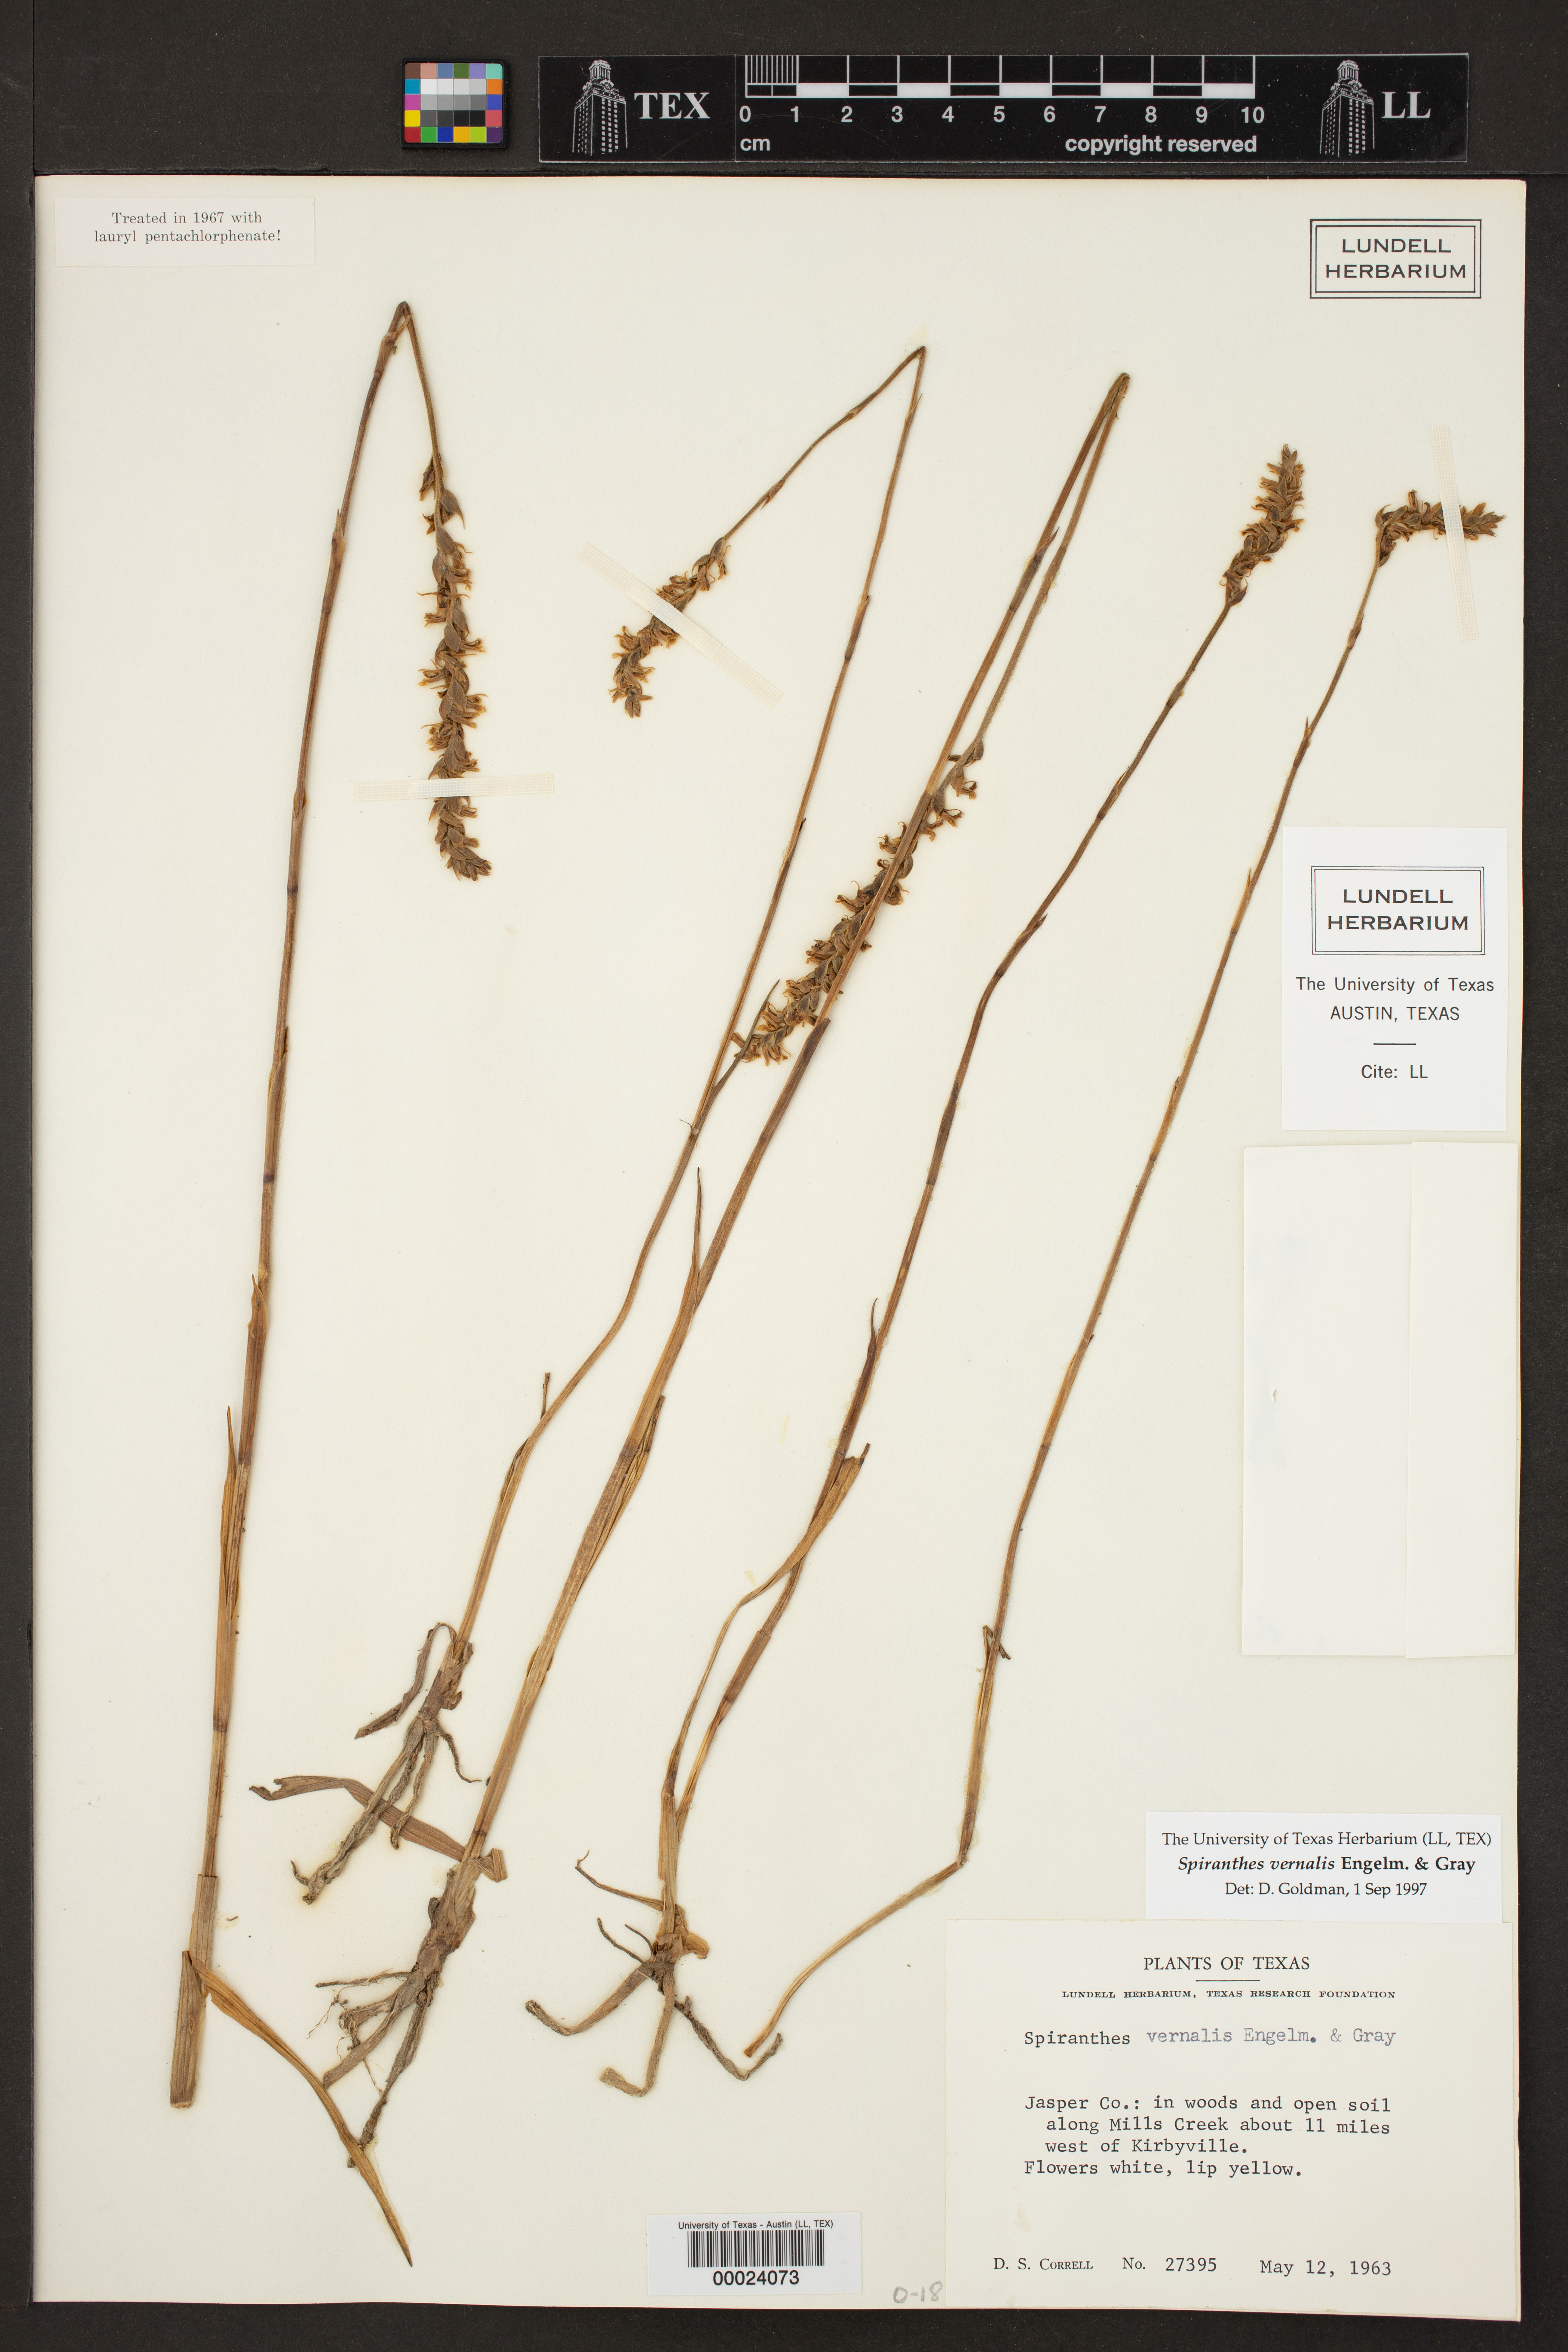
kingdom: Plantae
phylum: Tracheophyta
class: Liliopsida
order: Asparagales
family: Orchidaceae
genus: Spiranthes
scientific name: Spiranthes vernalis
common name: Spring ladies'-tresses
